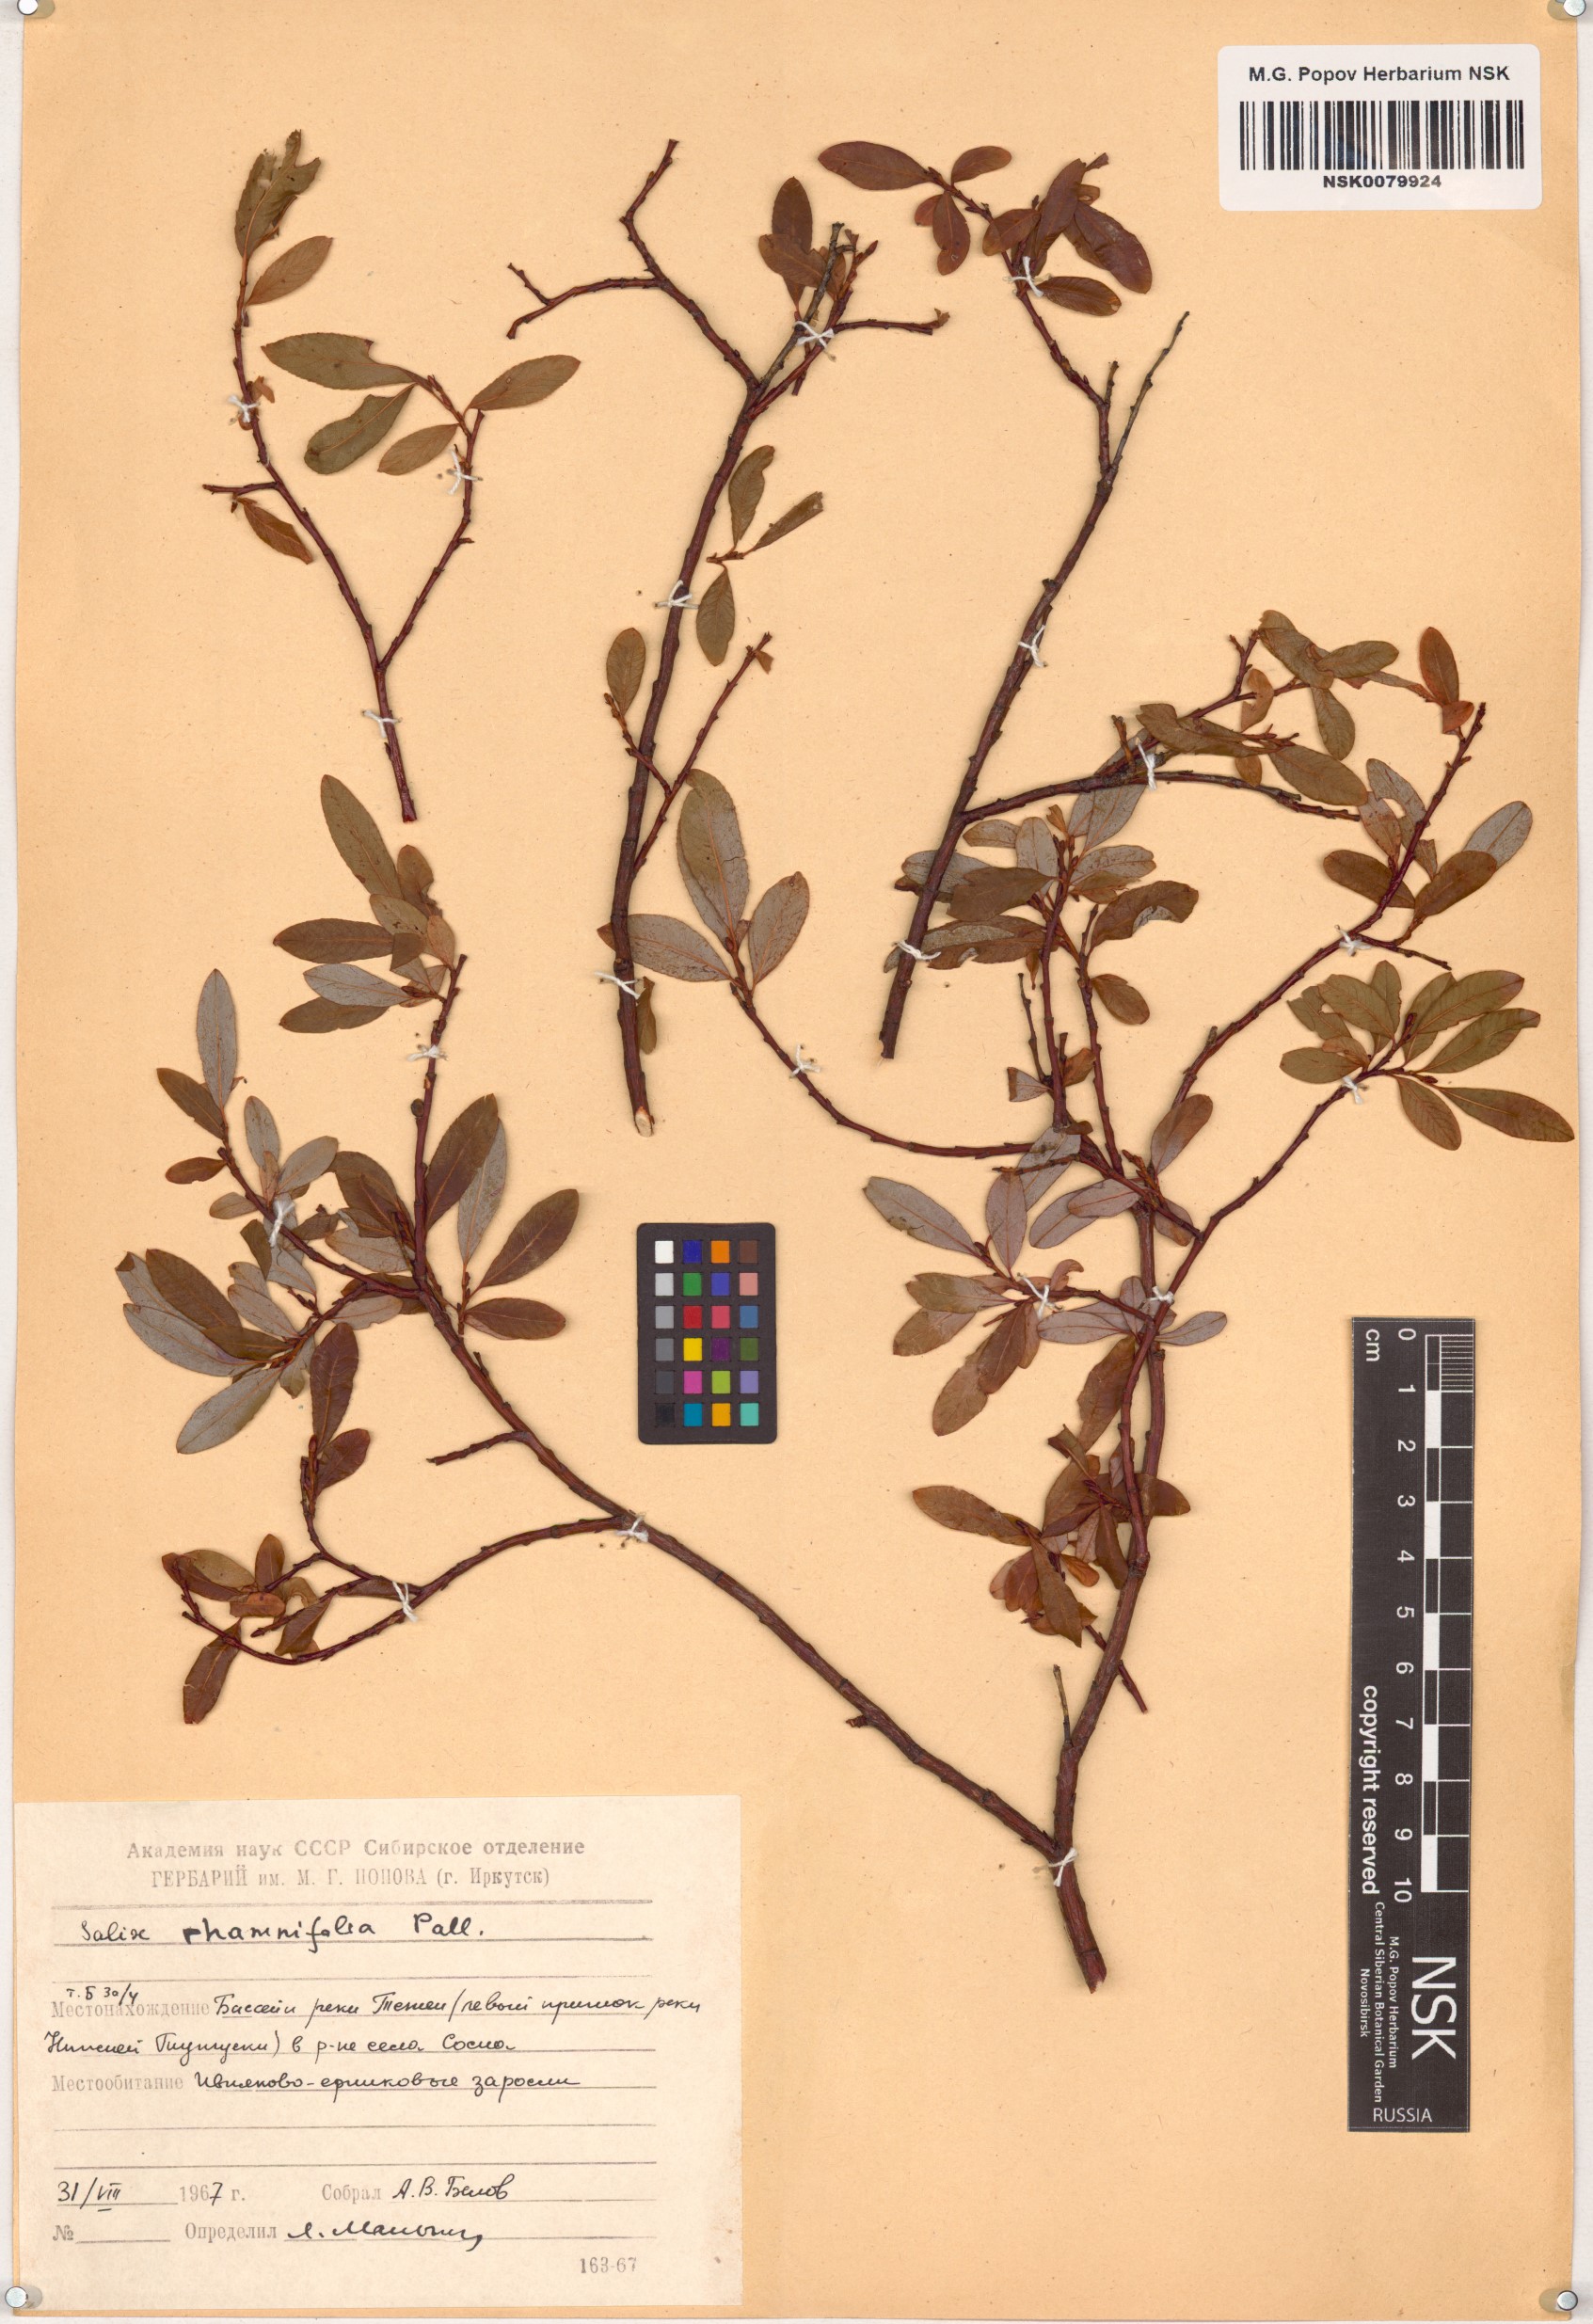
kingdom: Plantae
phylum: Tracheophyta
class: Magnoliopsida
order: Malpighiales
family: Salicaceae
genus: Salix
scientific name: Salix rhamnifolia
